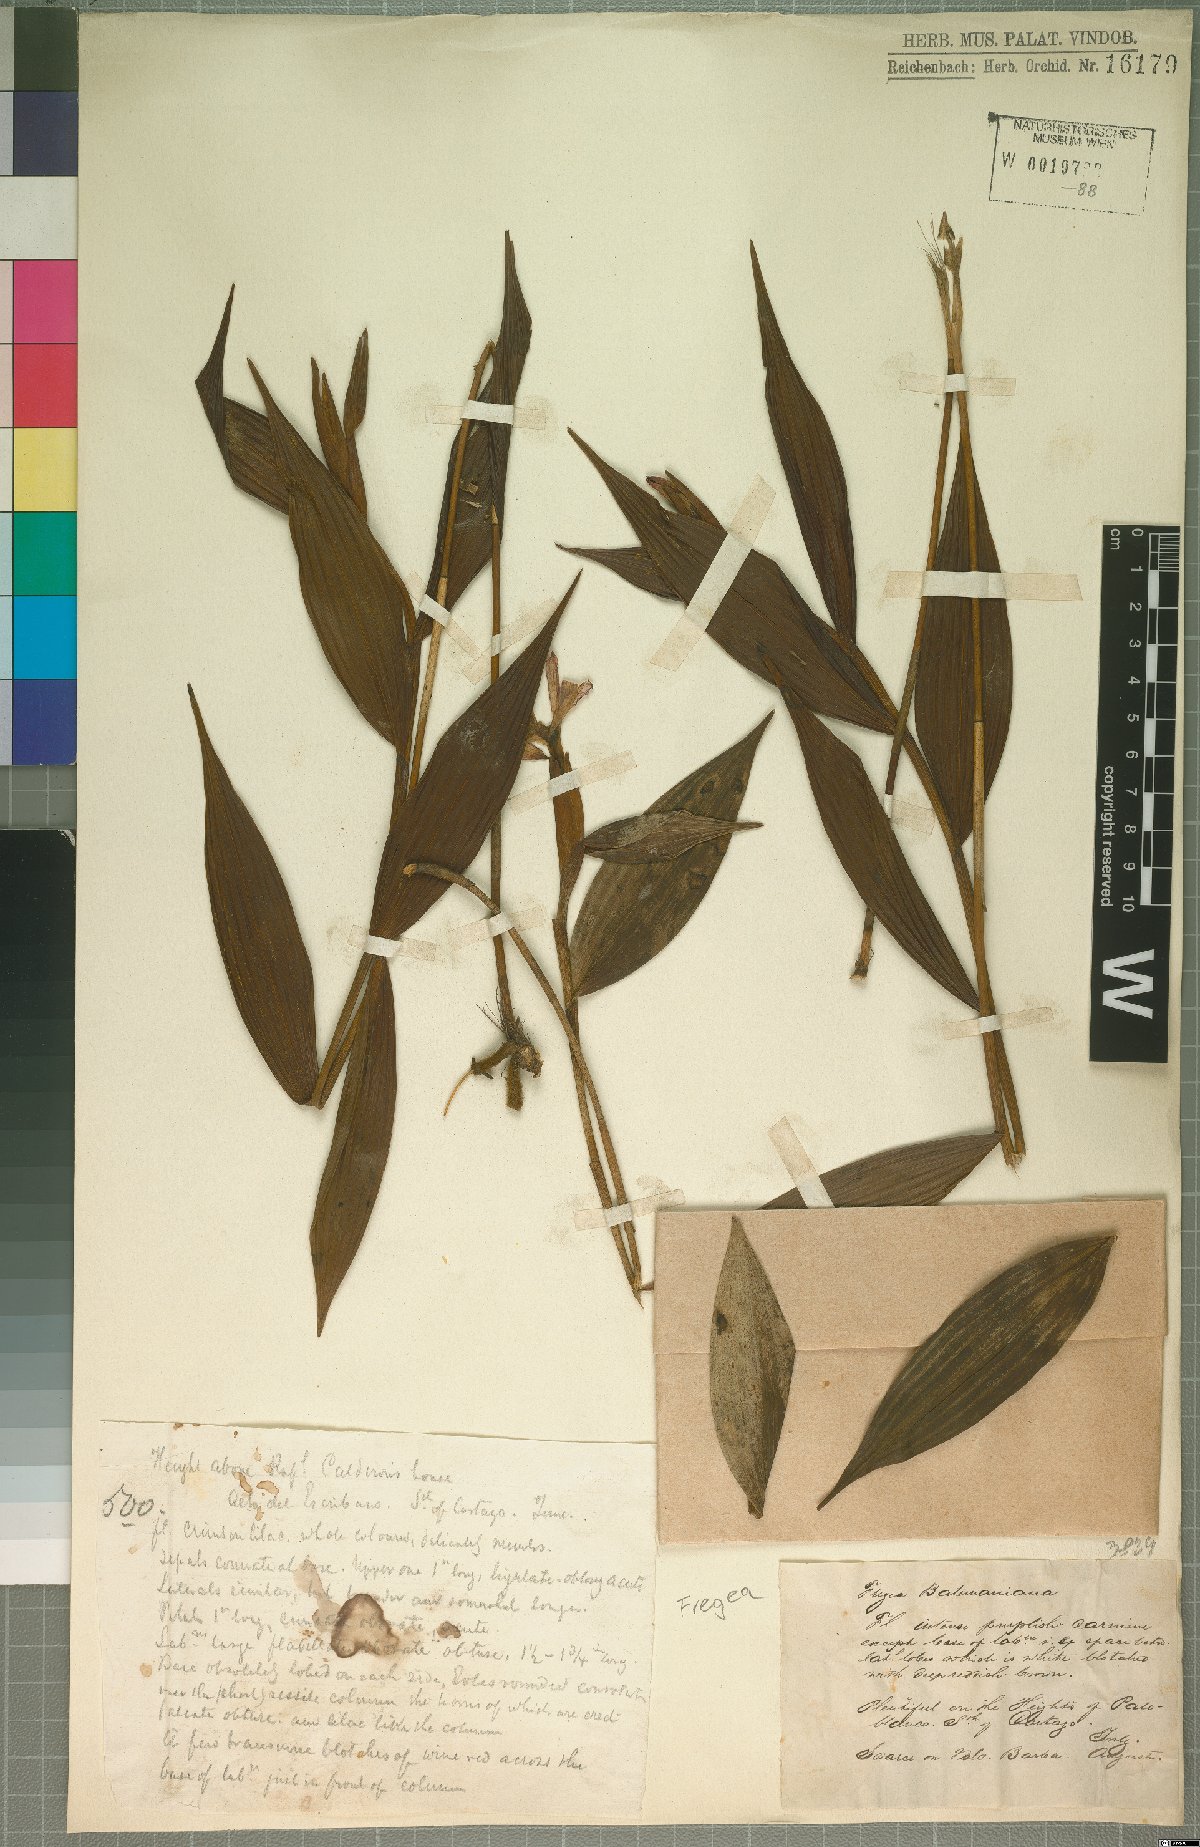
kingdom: Plantae
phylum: Tracheophyta
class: Liliopsida
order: Asparagales
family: Orchidaceae
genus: Sobralia
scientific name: Sobralia
